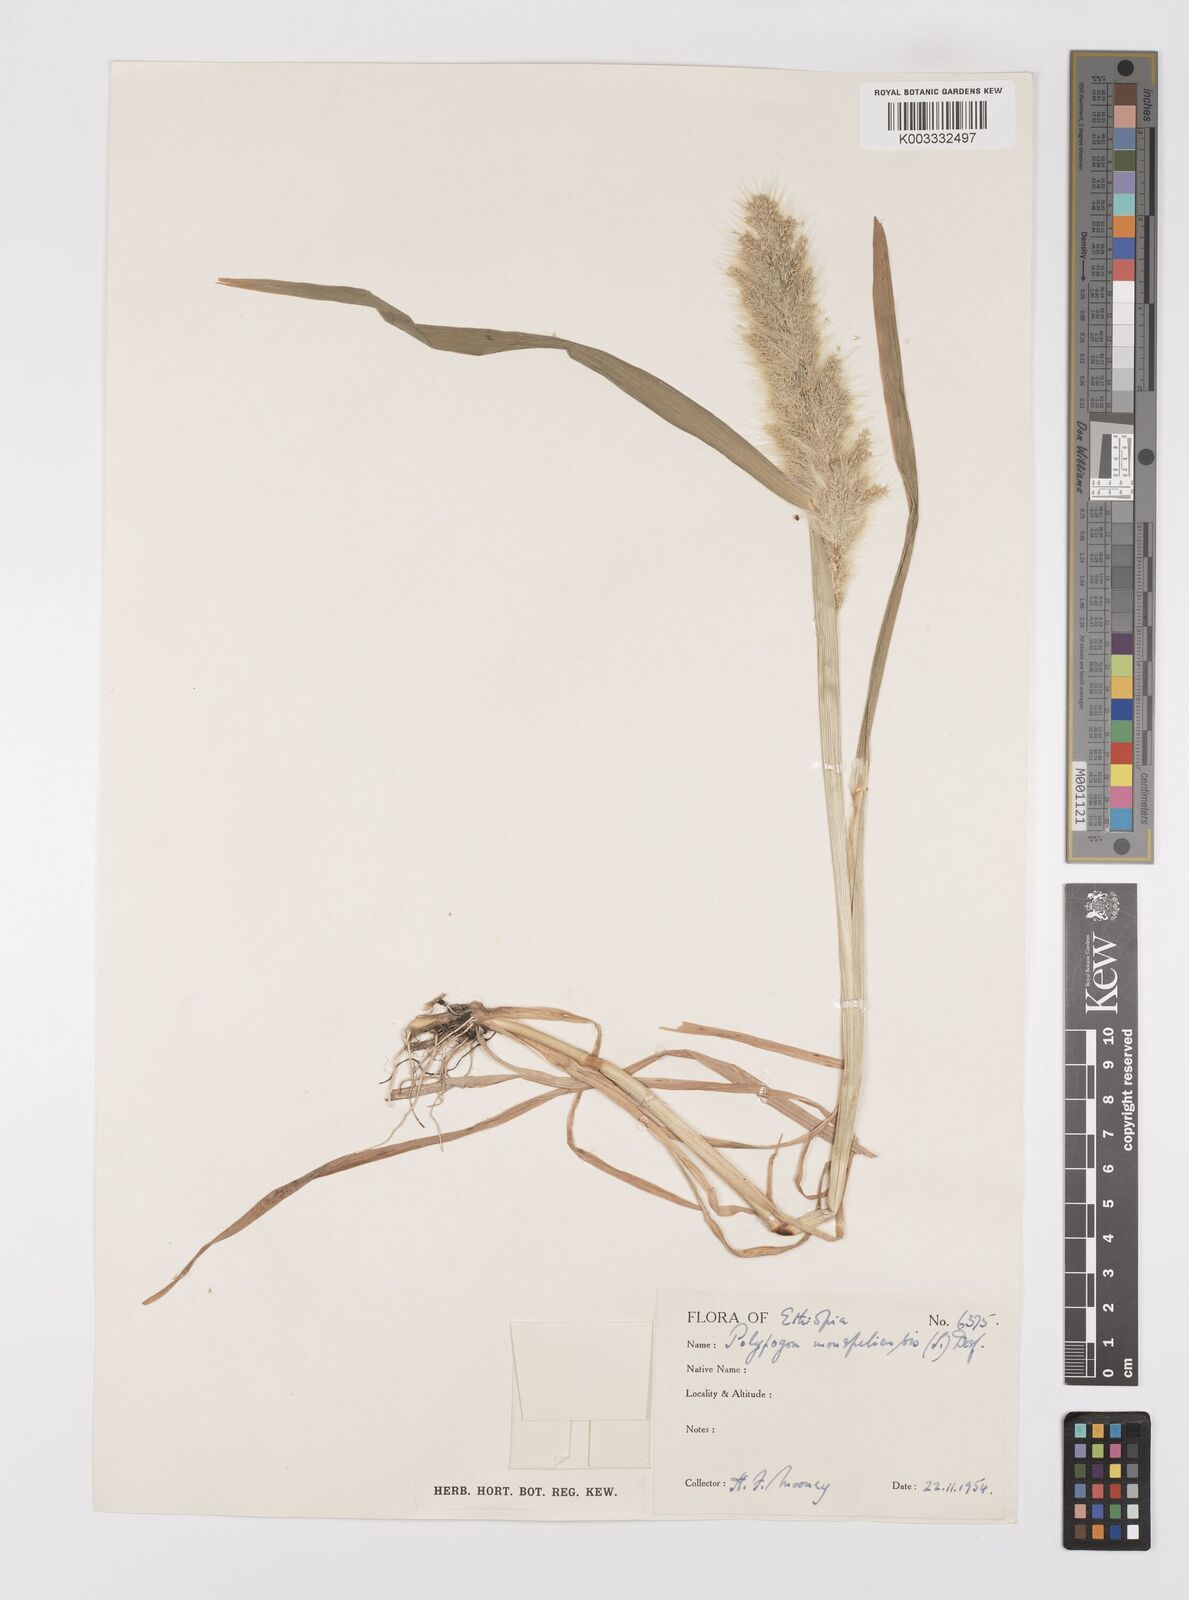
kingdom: Plantae
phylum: Tracheophyta
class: Liliopsida
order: Poales
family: Poaceae
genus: Polypogon
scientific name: Polypogon monspeliensis
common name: Annual rabbitsfoot grass
